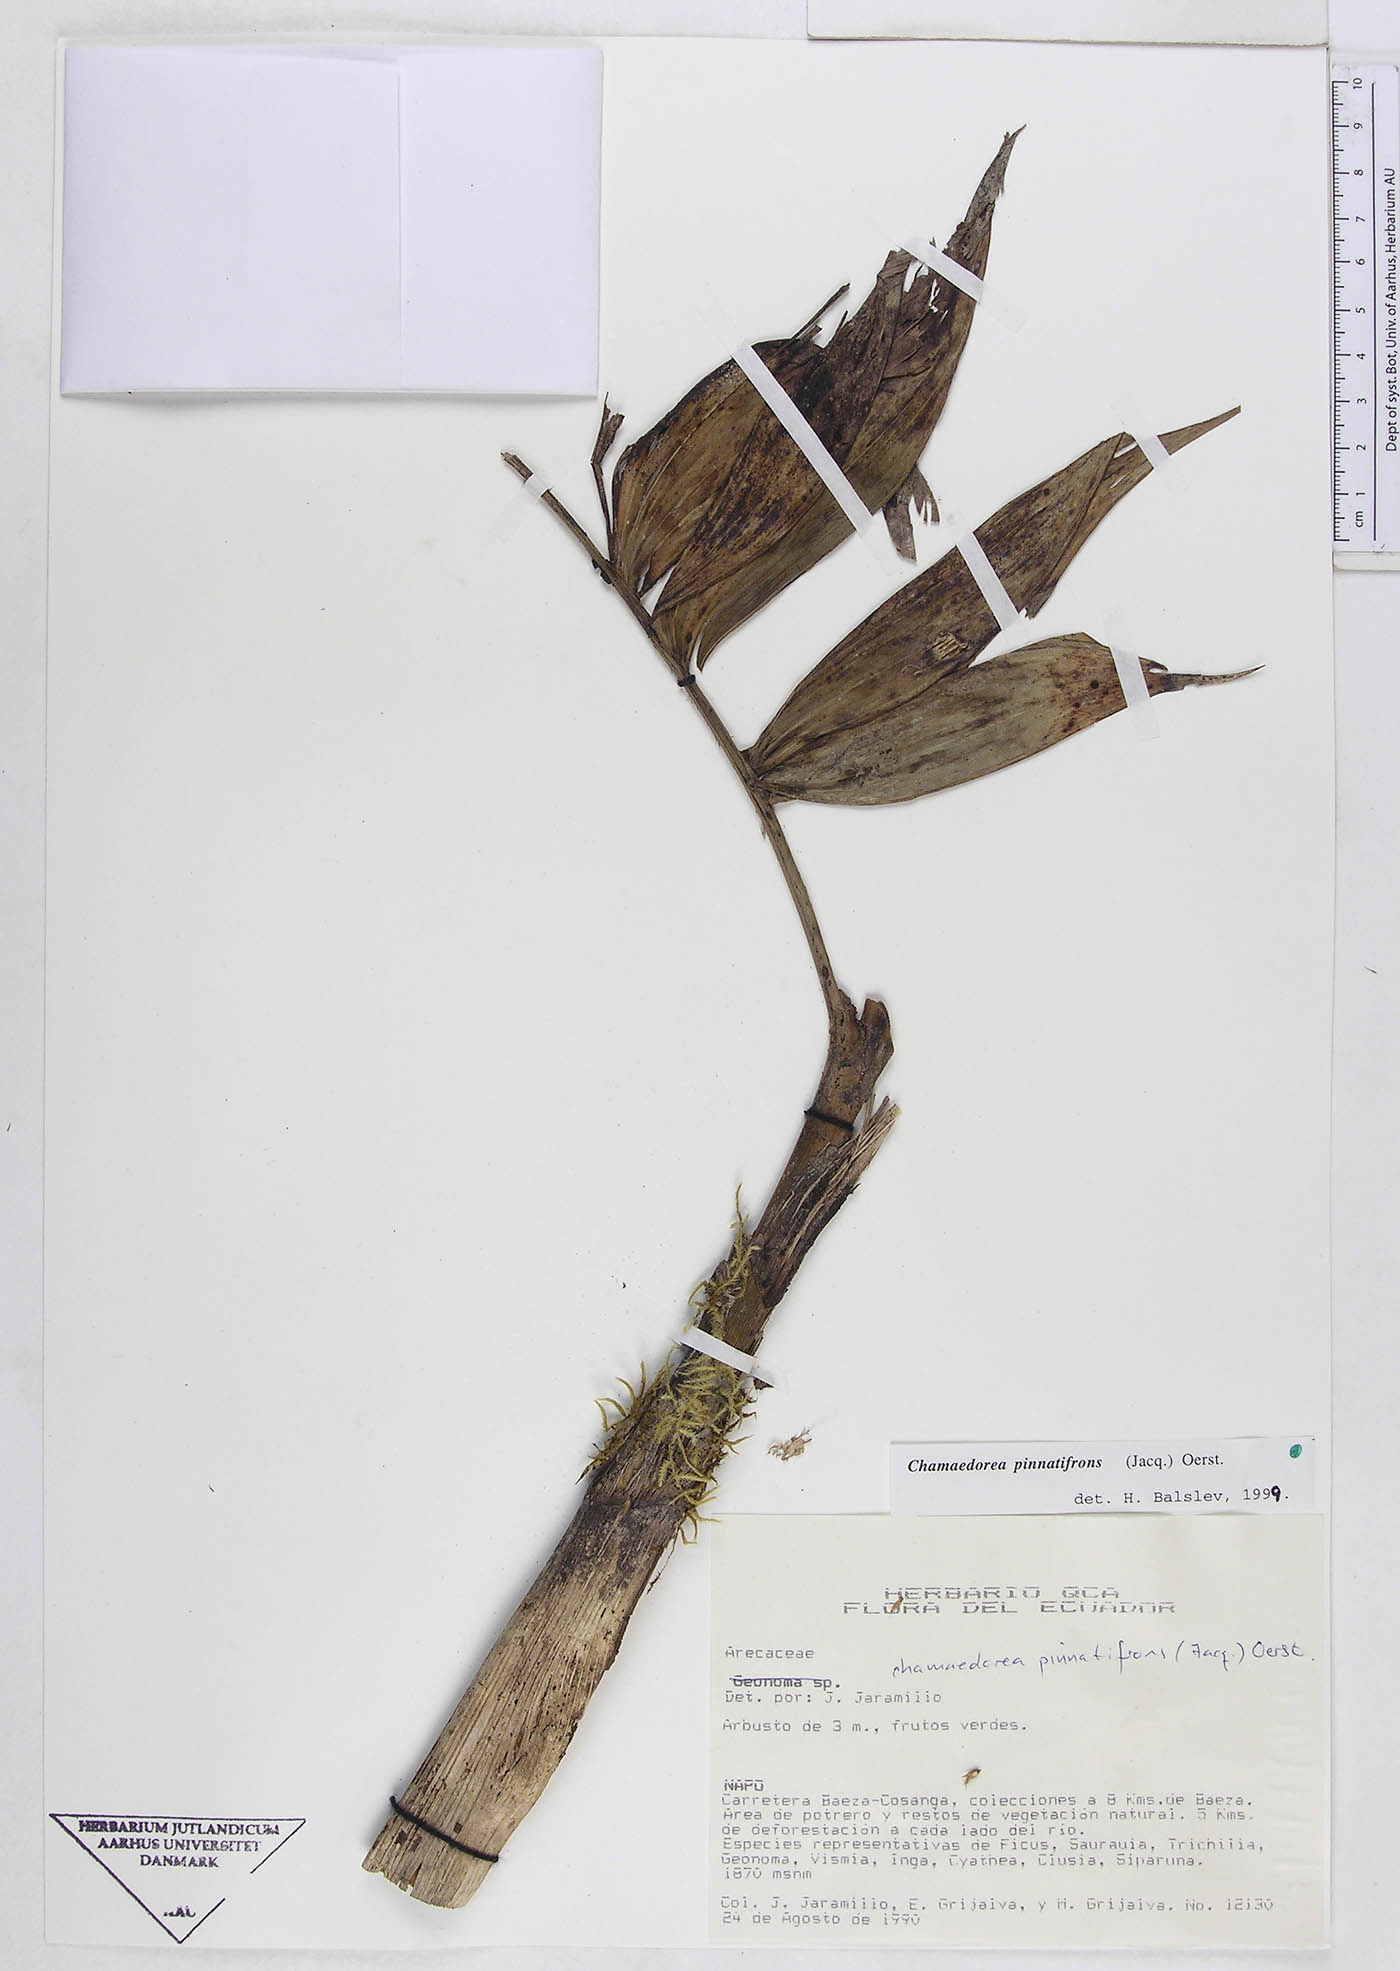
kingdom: Plantae
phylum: Tracheophyta
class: Liliopsida
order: Arecales
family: Arecaceae
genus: Chamaedorea
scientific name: Chamaedorea pinnatifrons
